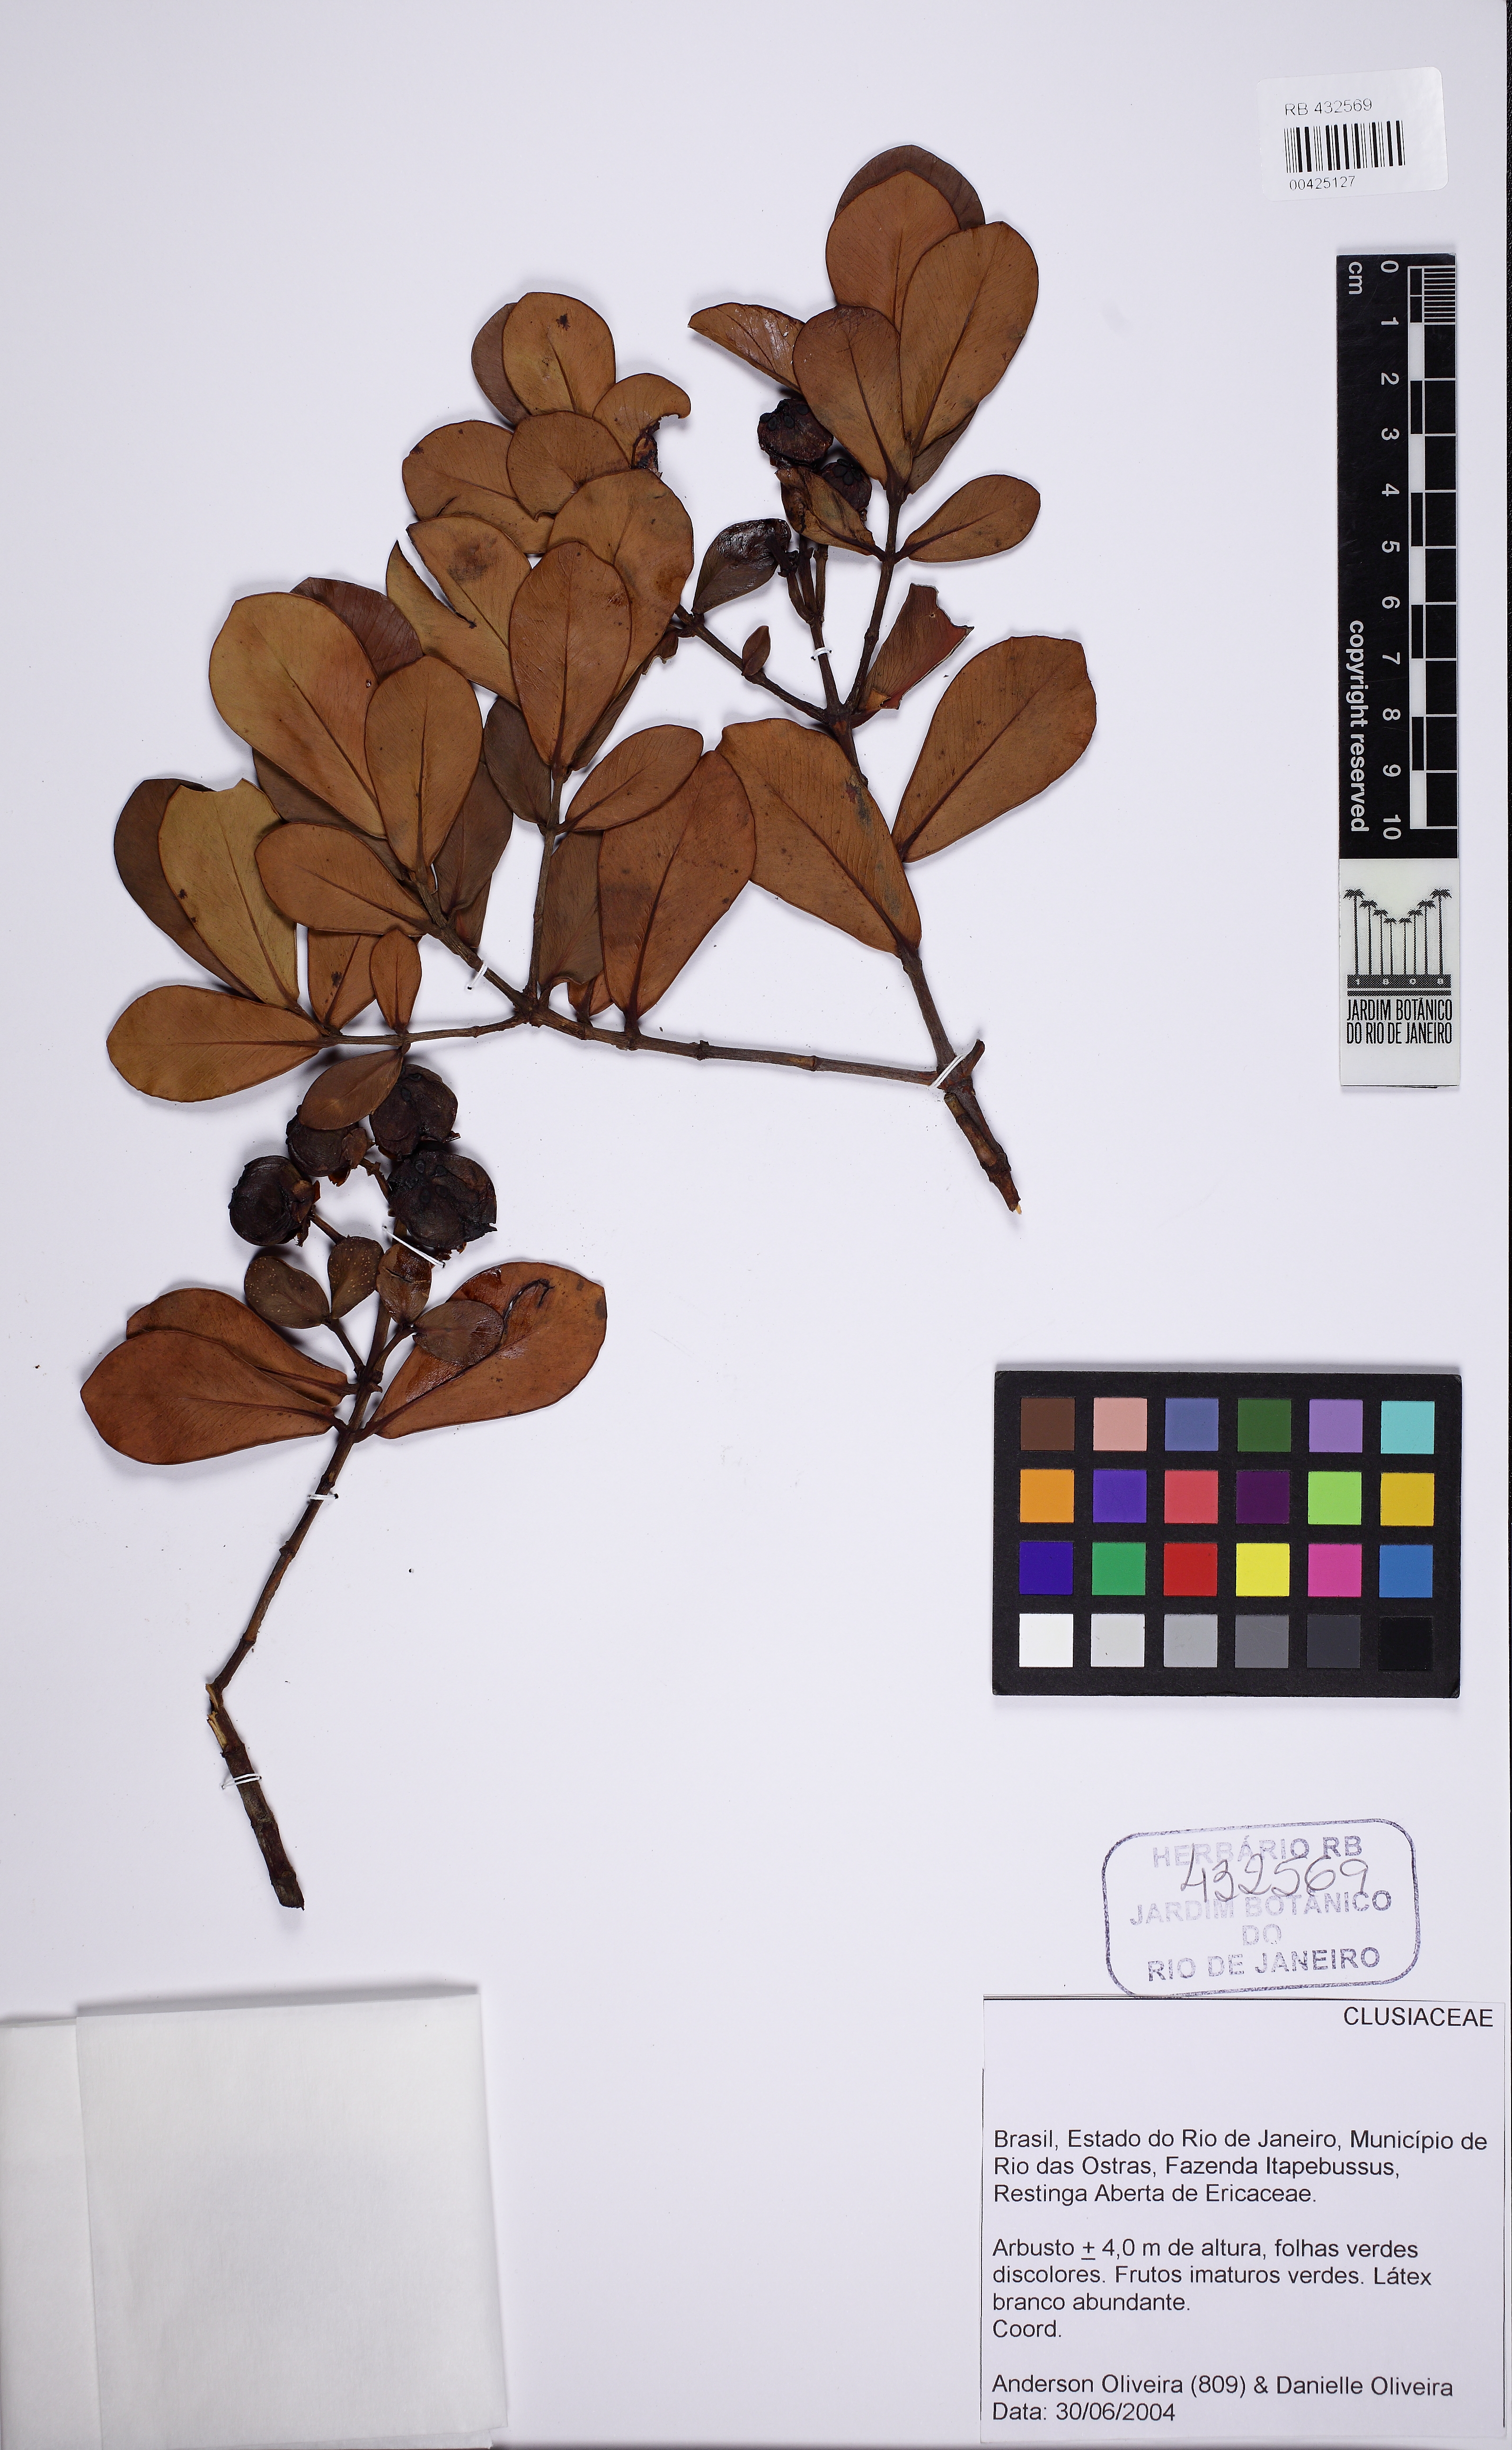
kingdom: Plantae
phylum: Tracheophyta
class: Magnoliopsida
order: Malpighiales
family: Clusiaceae
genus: Clusia
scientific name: Clusia criuva
